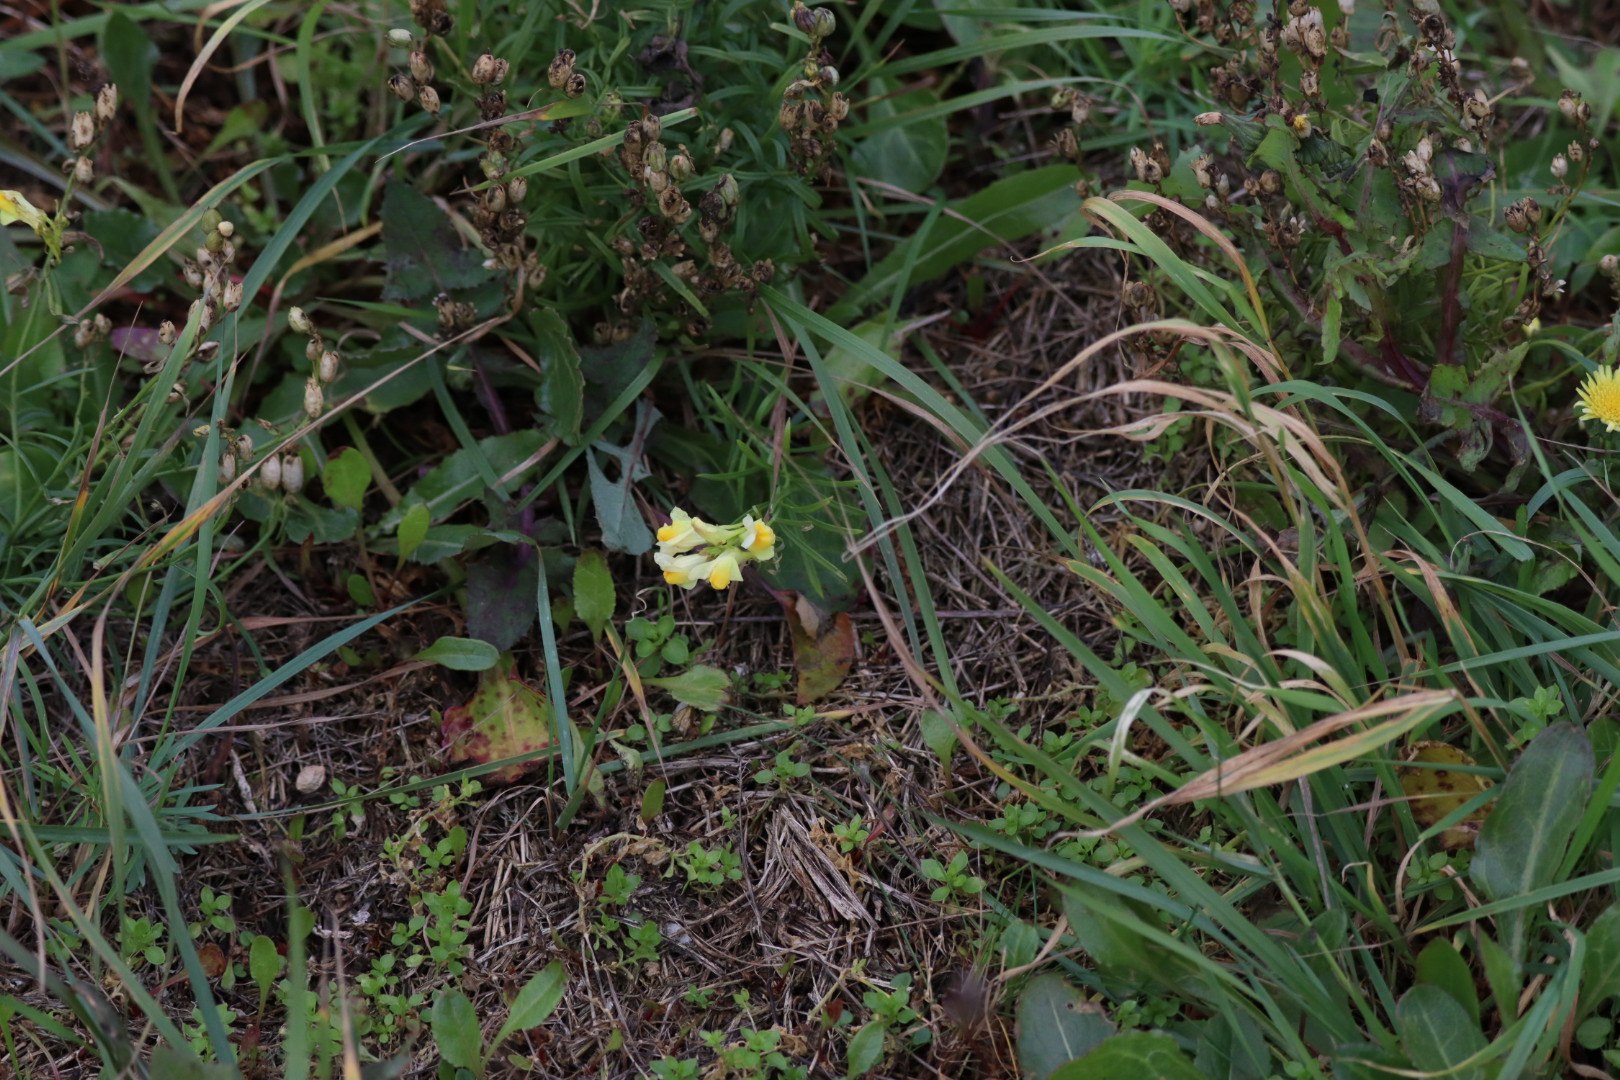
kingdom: Plantae
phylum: Tracheophyta
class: Magnoliopsida
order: Lamiales
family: Plantaginaceae
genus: Linaria
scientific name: Linaria vulgaris
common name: Almindelig torskemund
